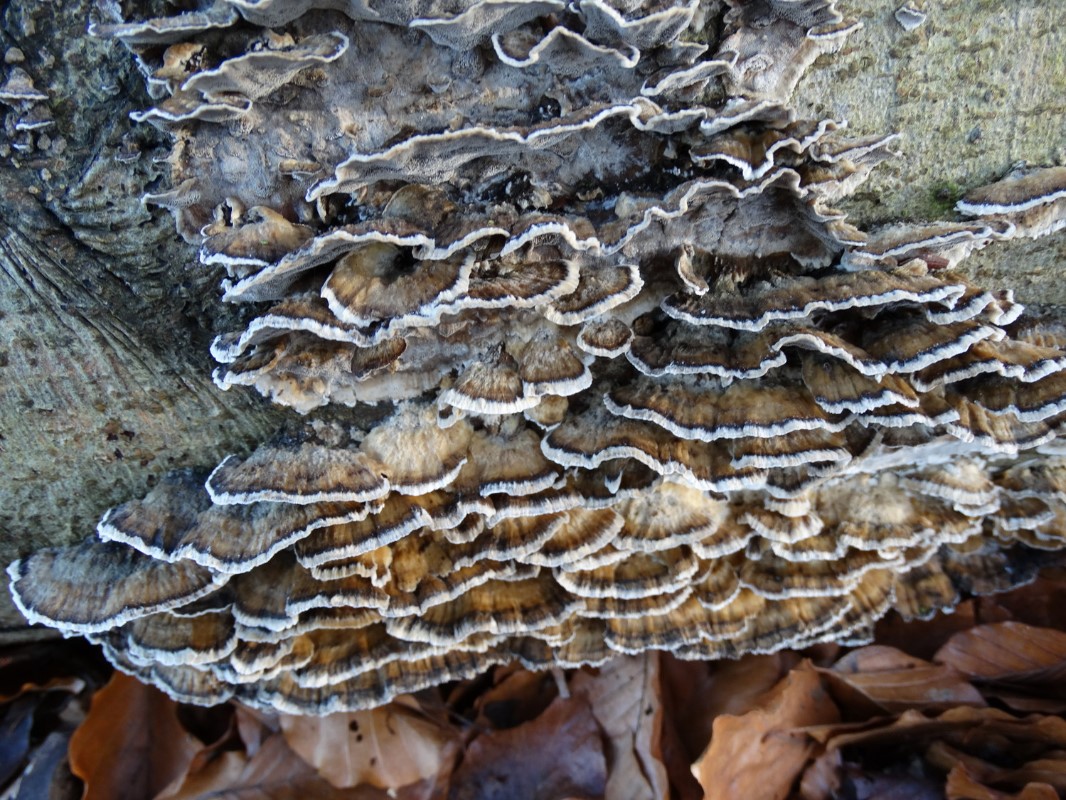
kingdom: Fungi
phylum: Basidiomycota
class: Agaricomycetes
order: Polyporales
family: Phanerochaetaceae
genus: Bjerkandera
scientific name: Bjerkandera adusta
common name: sveden sodporesvamp
